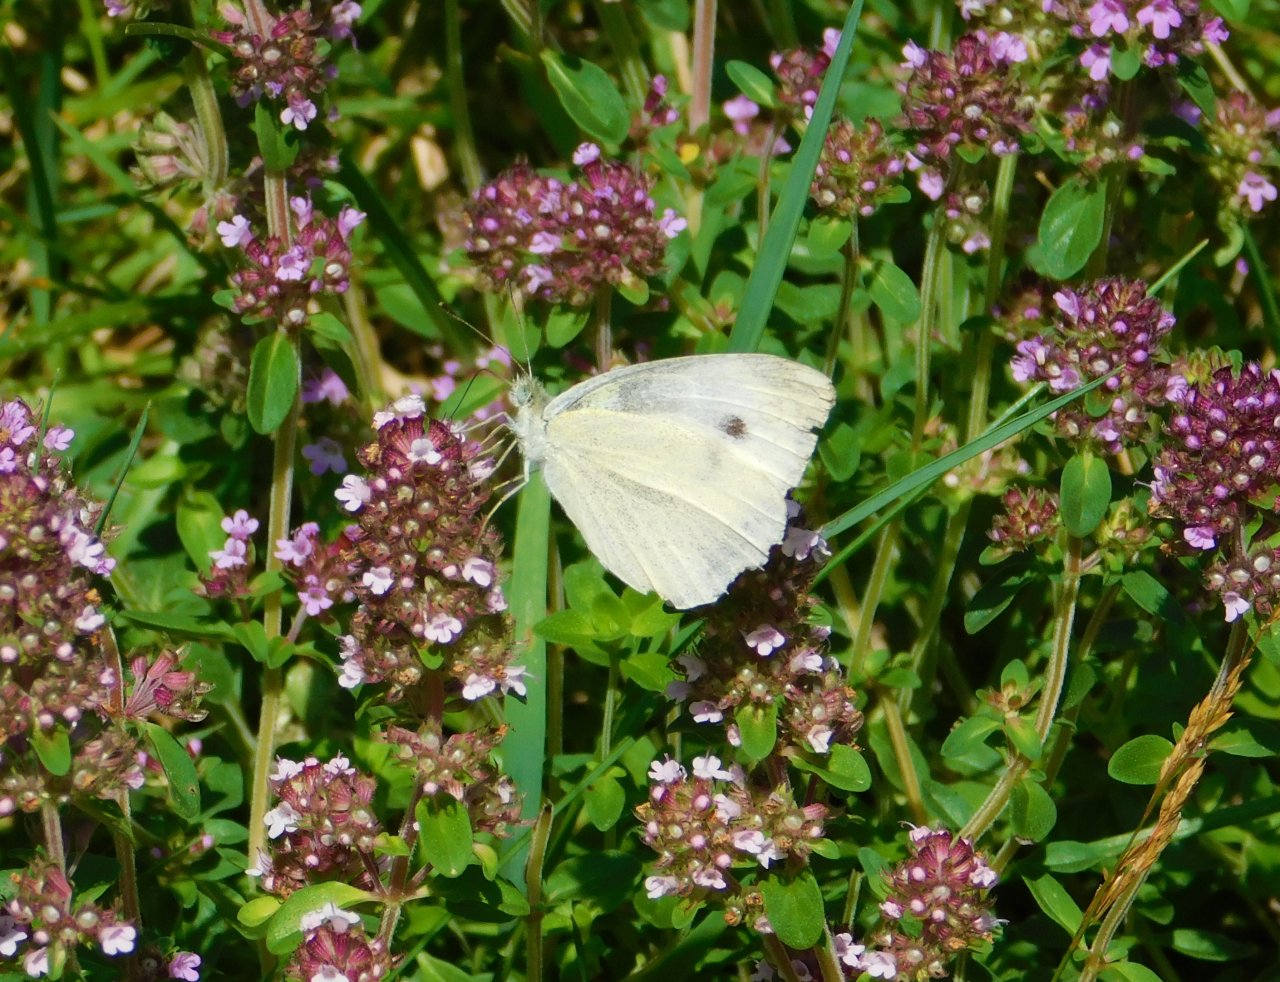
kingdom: Animalia
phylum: Arthropoda
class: Insecta
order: Lepidoptera
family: Pieridae
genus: Pieris
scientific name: Pieris rapae
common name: Cabbage White
